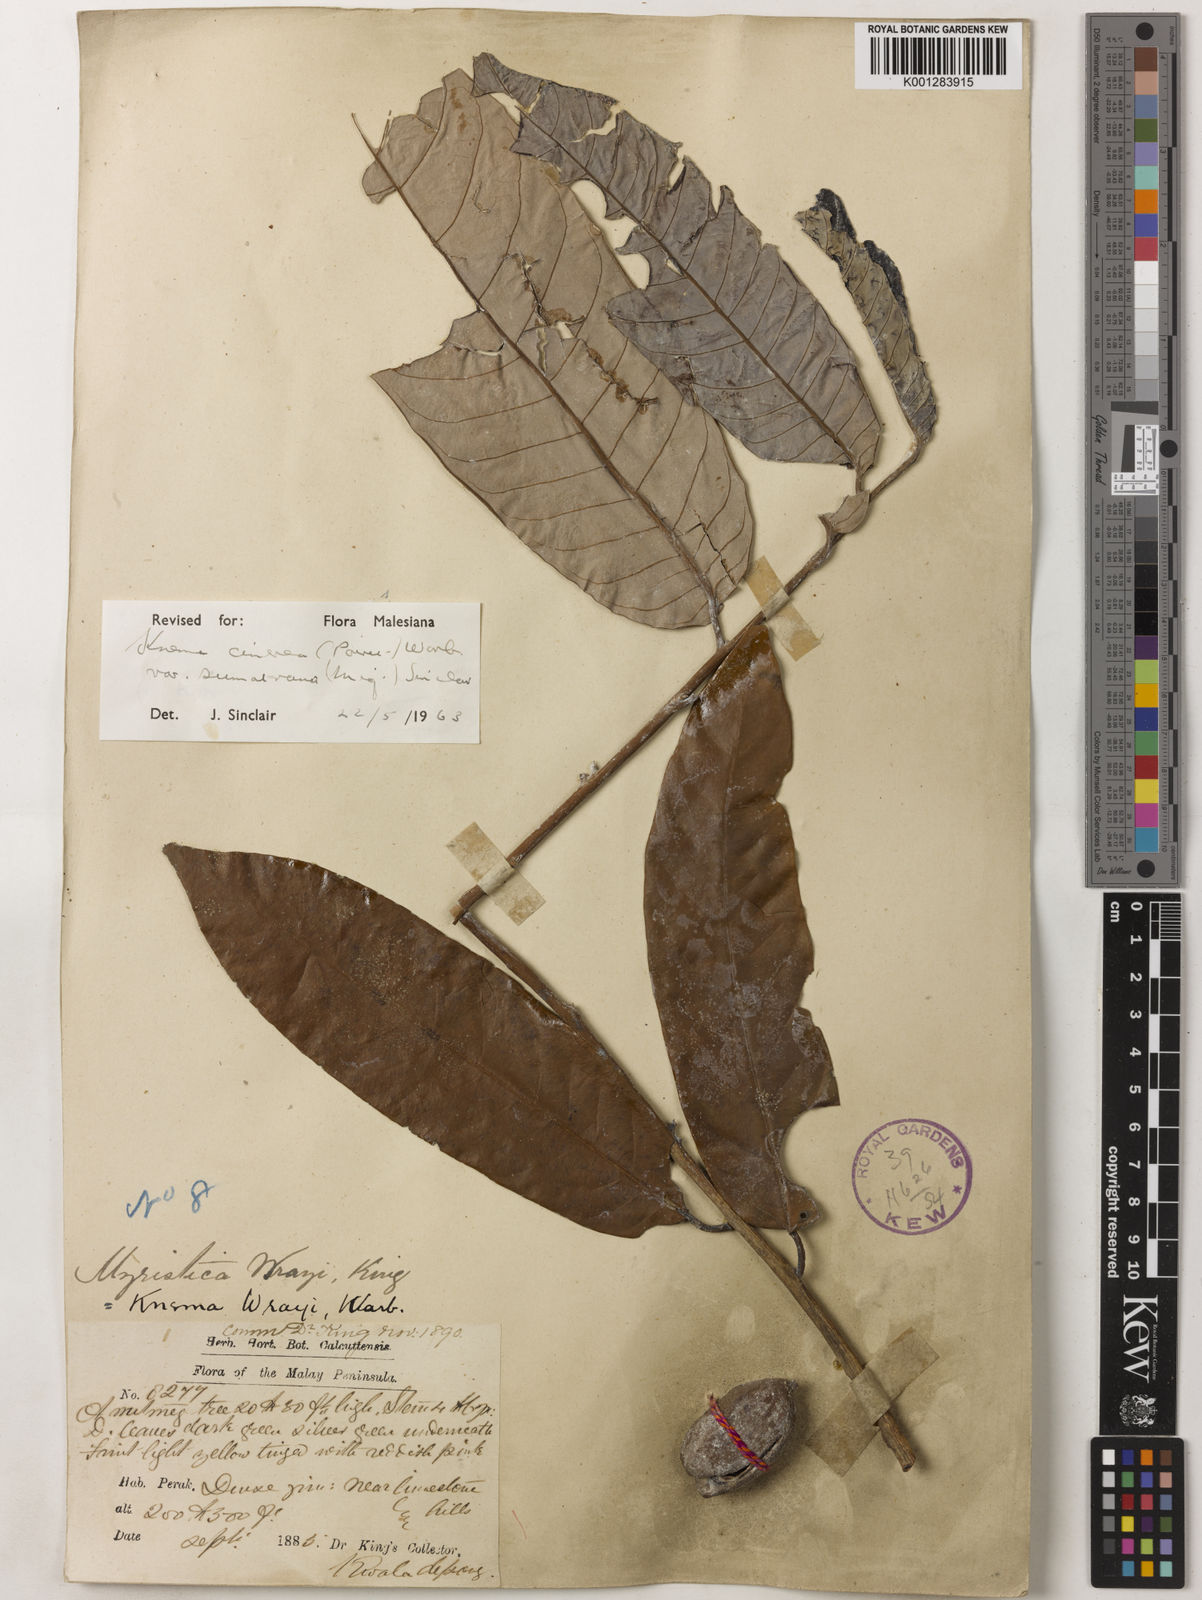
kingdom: Plantae
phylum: Tracheophyta
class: Magnoliopsida
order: Magnoliales
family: Myristicaceae
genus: Knema
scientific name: Knema
